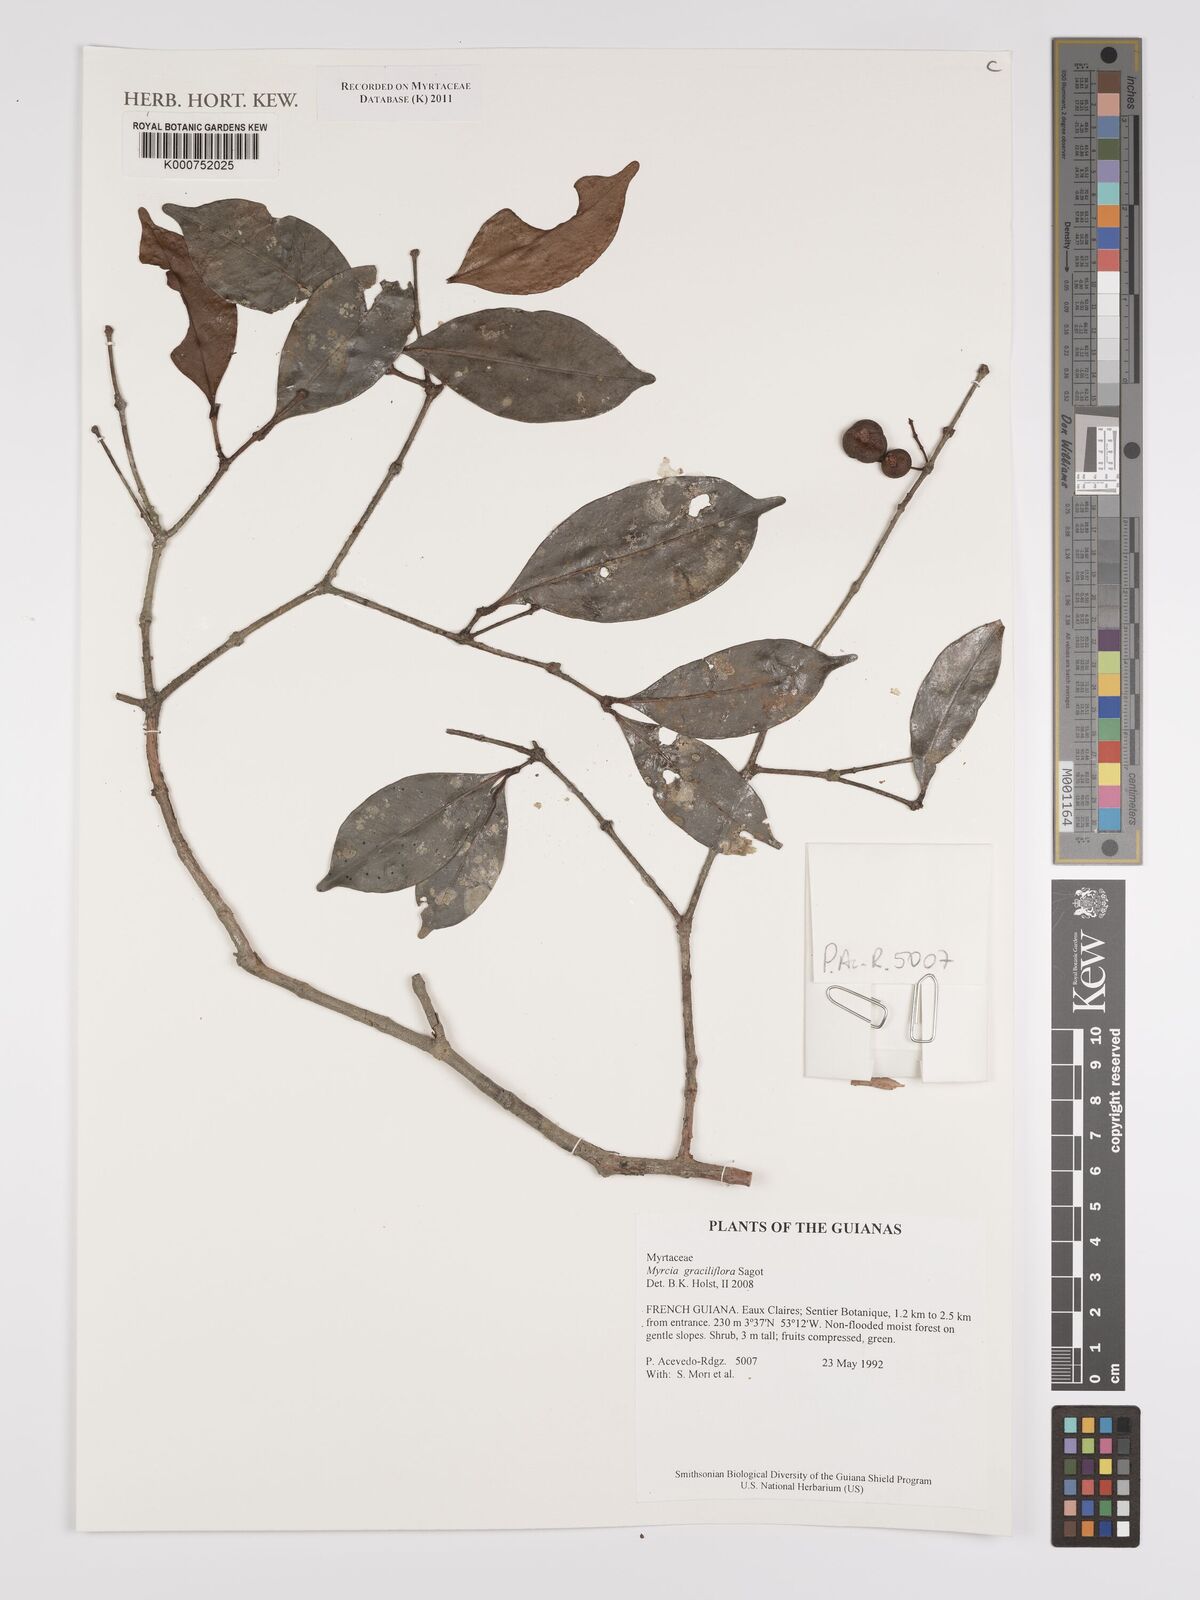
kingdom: Plantae
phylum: Tracheophyta
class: Magnoliopsida
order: Myrtales
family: Myrtaceae
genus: Myrcia
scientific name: Myrcia graciliflora
